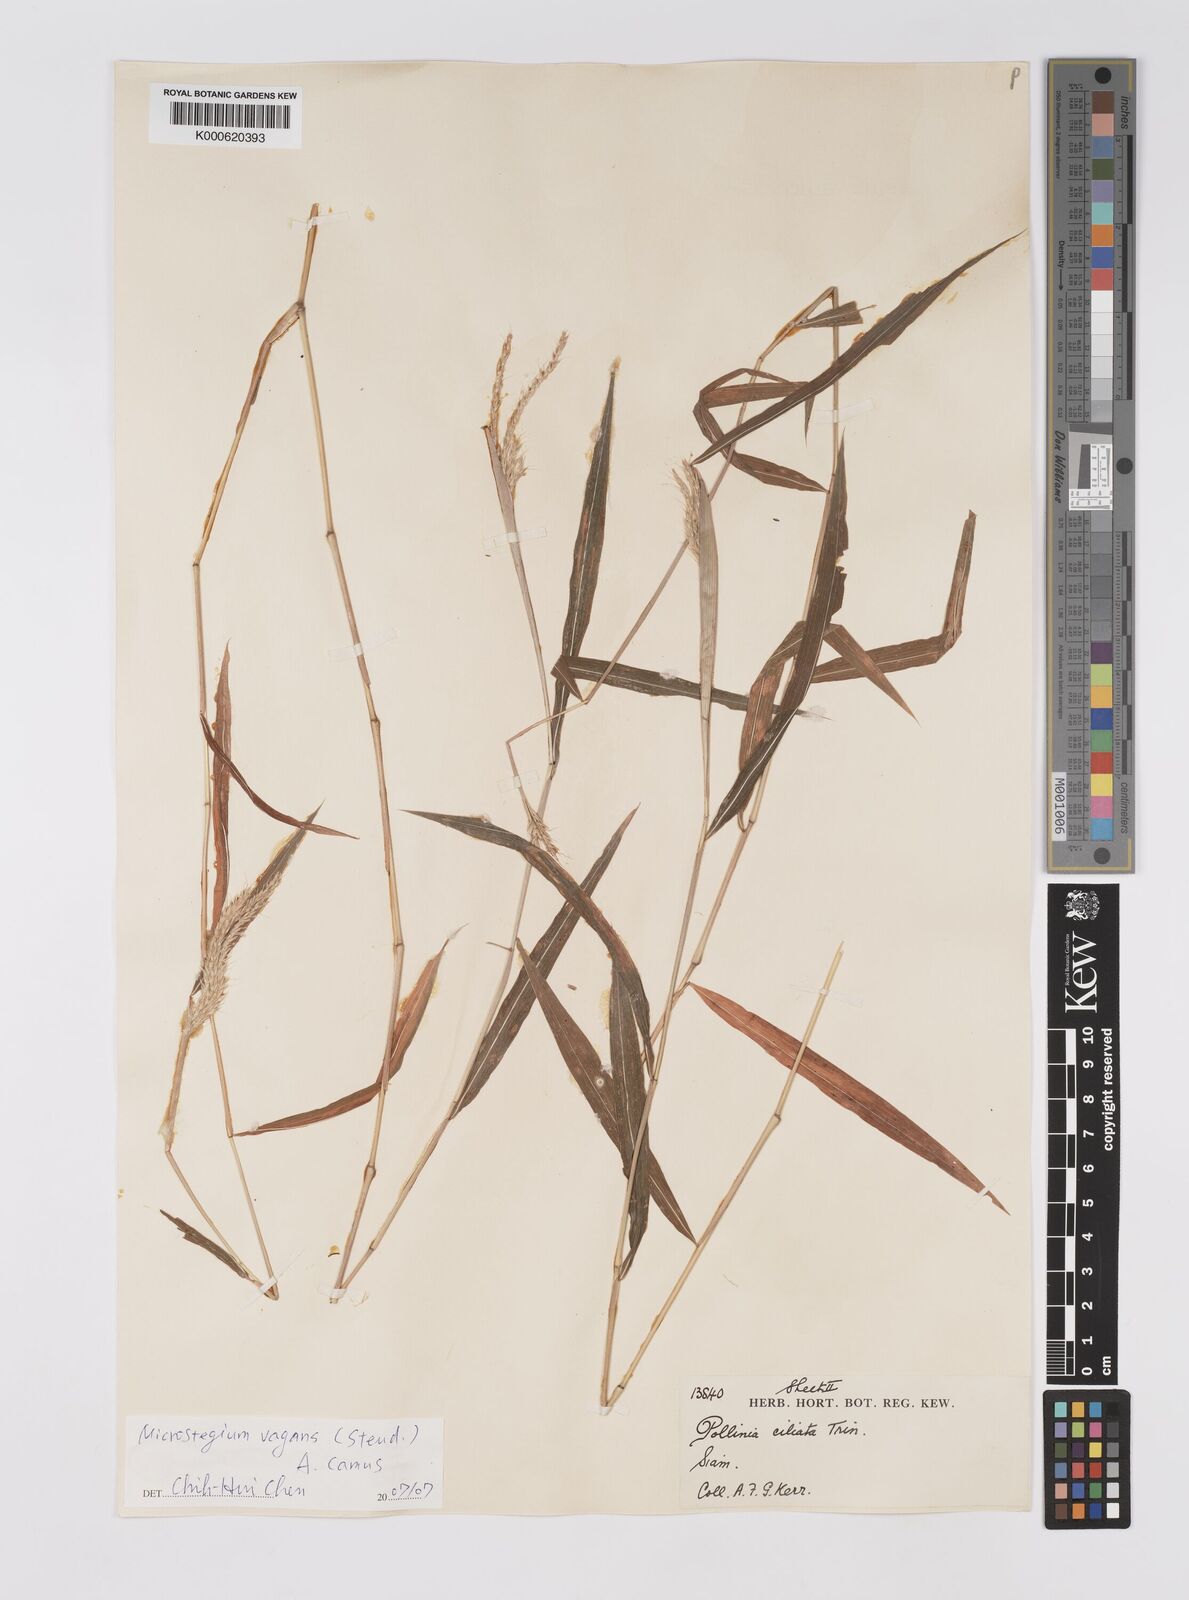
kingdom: Plantae
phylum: Tracheophyta
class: Liliopsida
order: Poales
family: Poaceae
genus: Microstegium
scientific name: Microstegium fasciculatum
